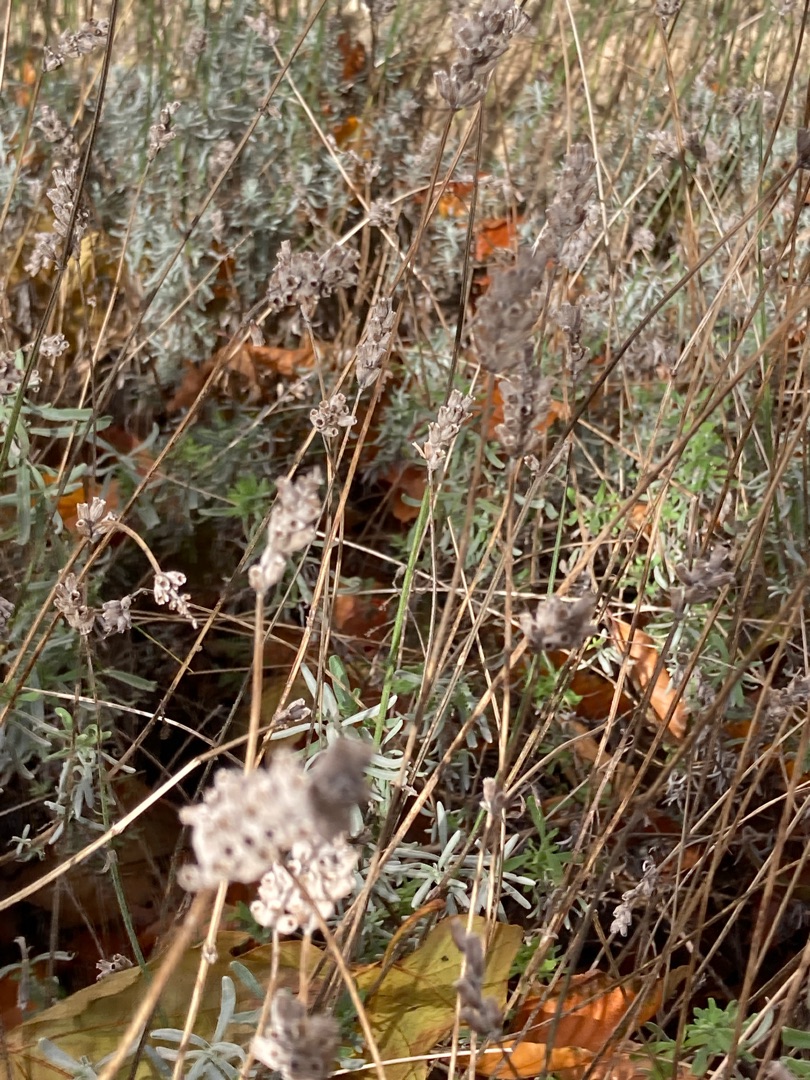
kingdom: Plantae
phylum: Tracheophyta
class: Magnoliopsida
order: Lamiales
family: Lamiaceae
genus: Lavandula
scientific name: Lavandula angustifolia
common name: Ægte lavendel
